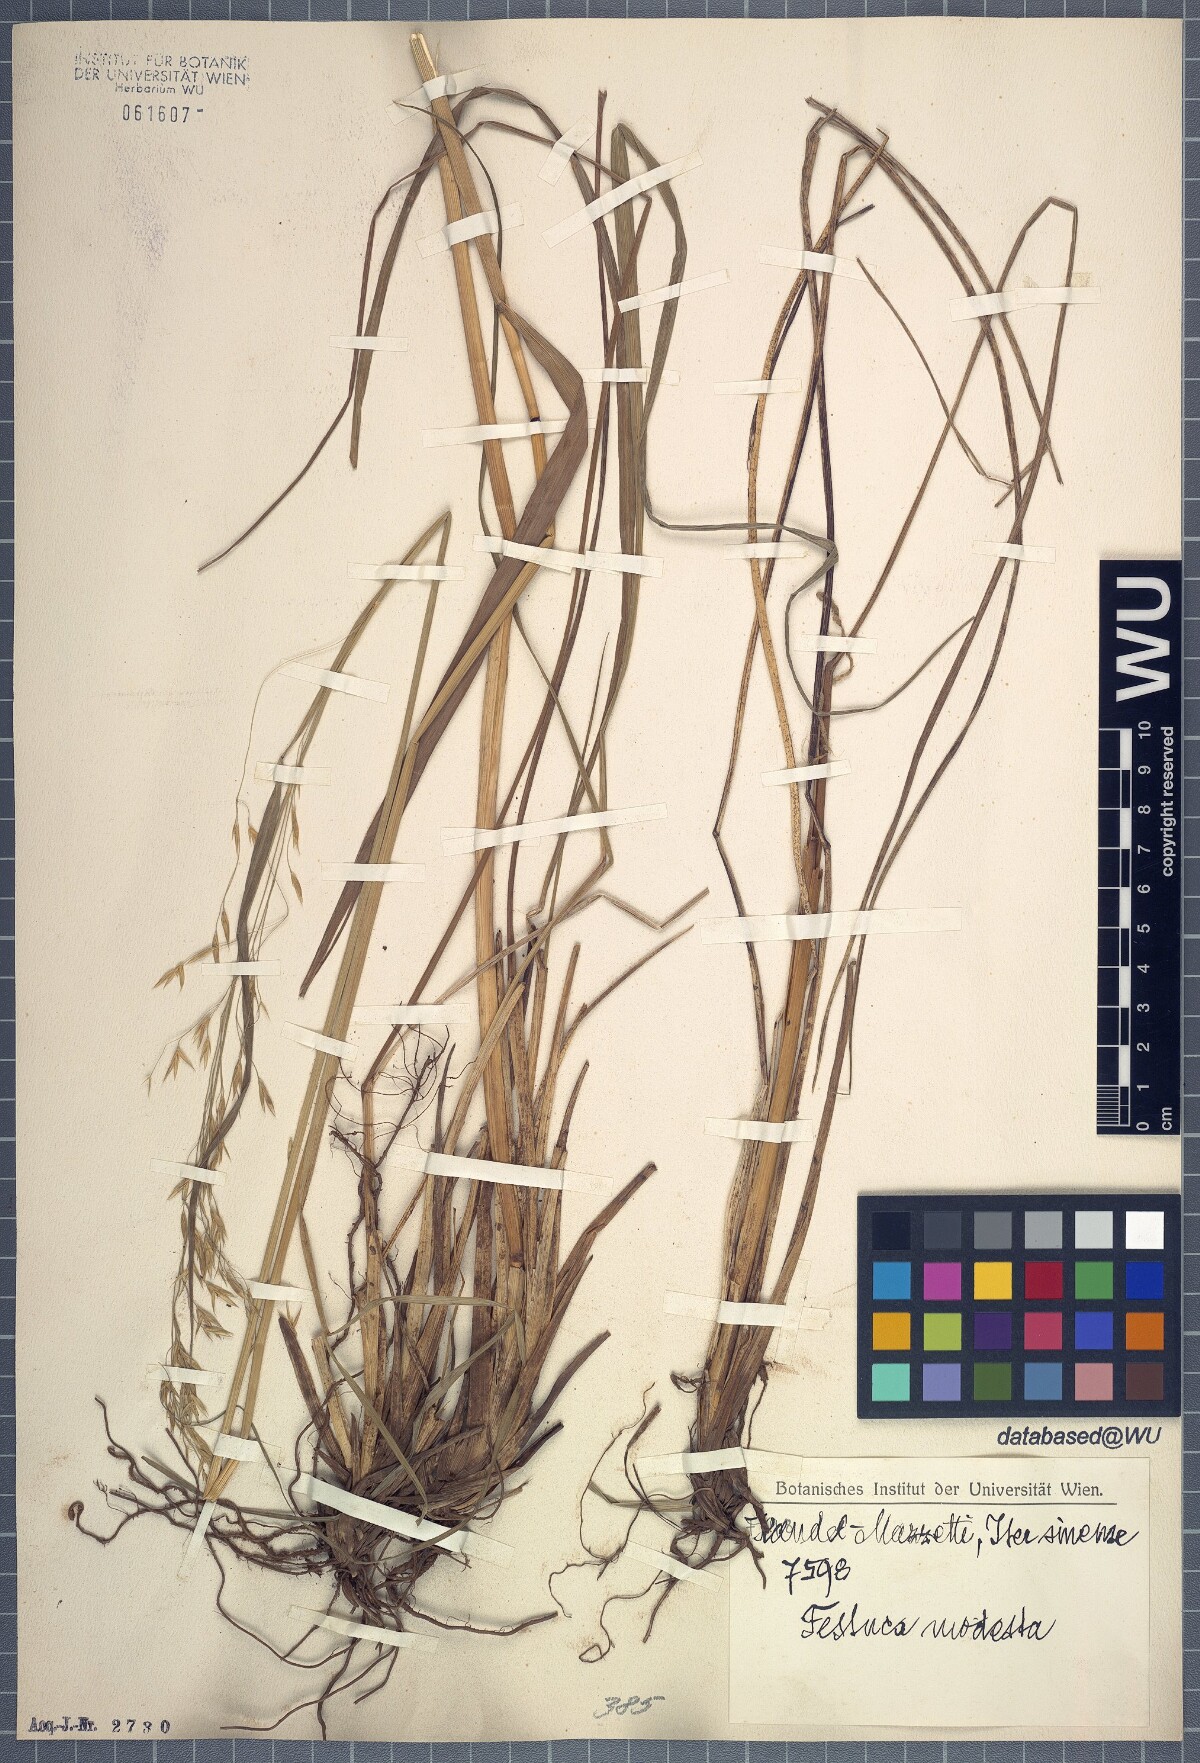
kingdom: Plantae
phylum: Tracheophyta
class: Liliopsida
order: Poales
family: Poaceae
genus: Festuca
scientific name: Festuca modesta
